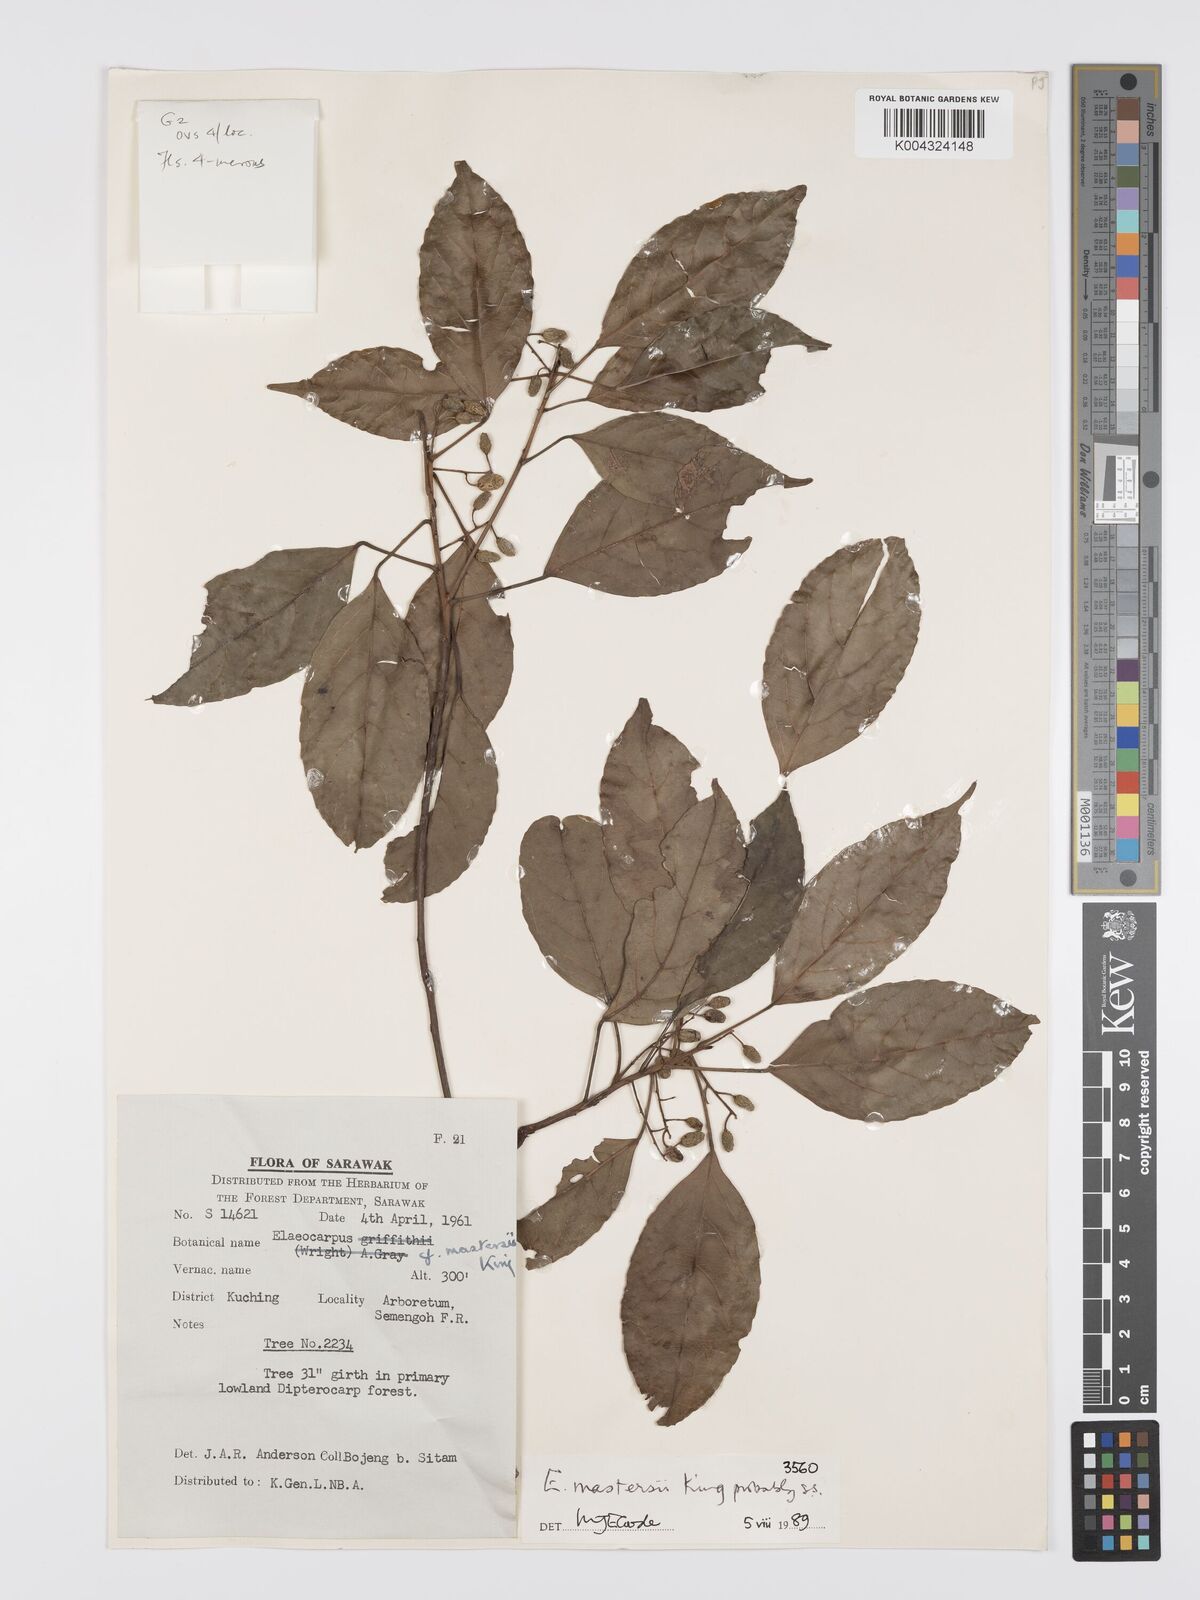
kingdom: Plantae
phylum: Tracheophyta
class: Magnoliopsida
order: Oxalidales
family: Elaeocarpaceae
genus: Elaeocarpus
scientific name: Elaeocarpus mastersii
